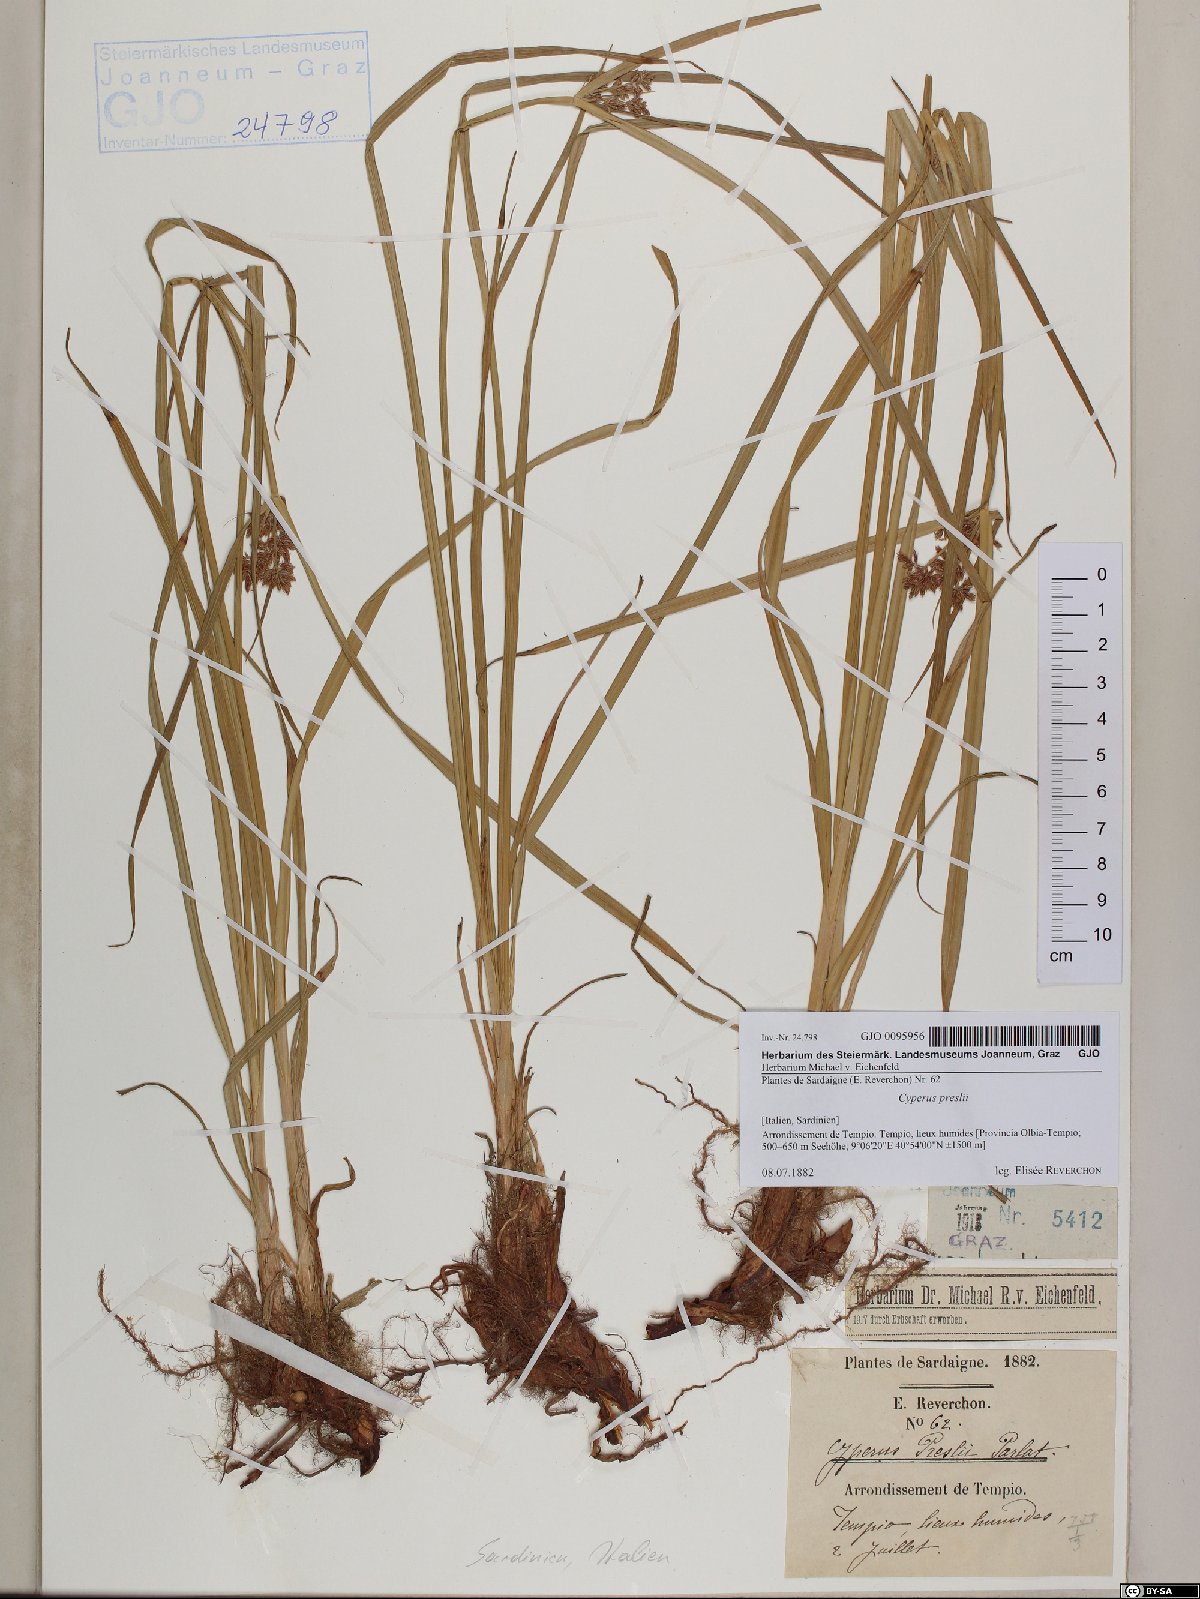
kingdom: Plantae
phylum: Tracheophyta
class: Liliopsida
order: Poales
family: Cyperaceae
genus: Cyperus
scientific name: Cyperus longus
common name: Galingale
